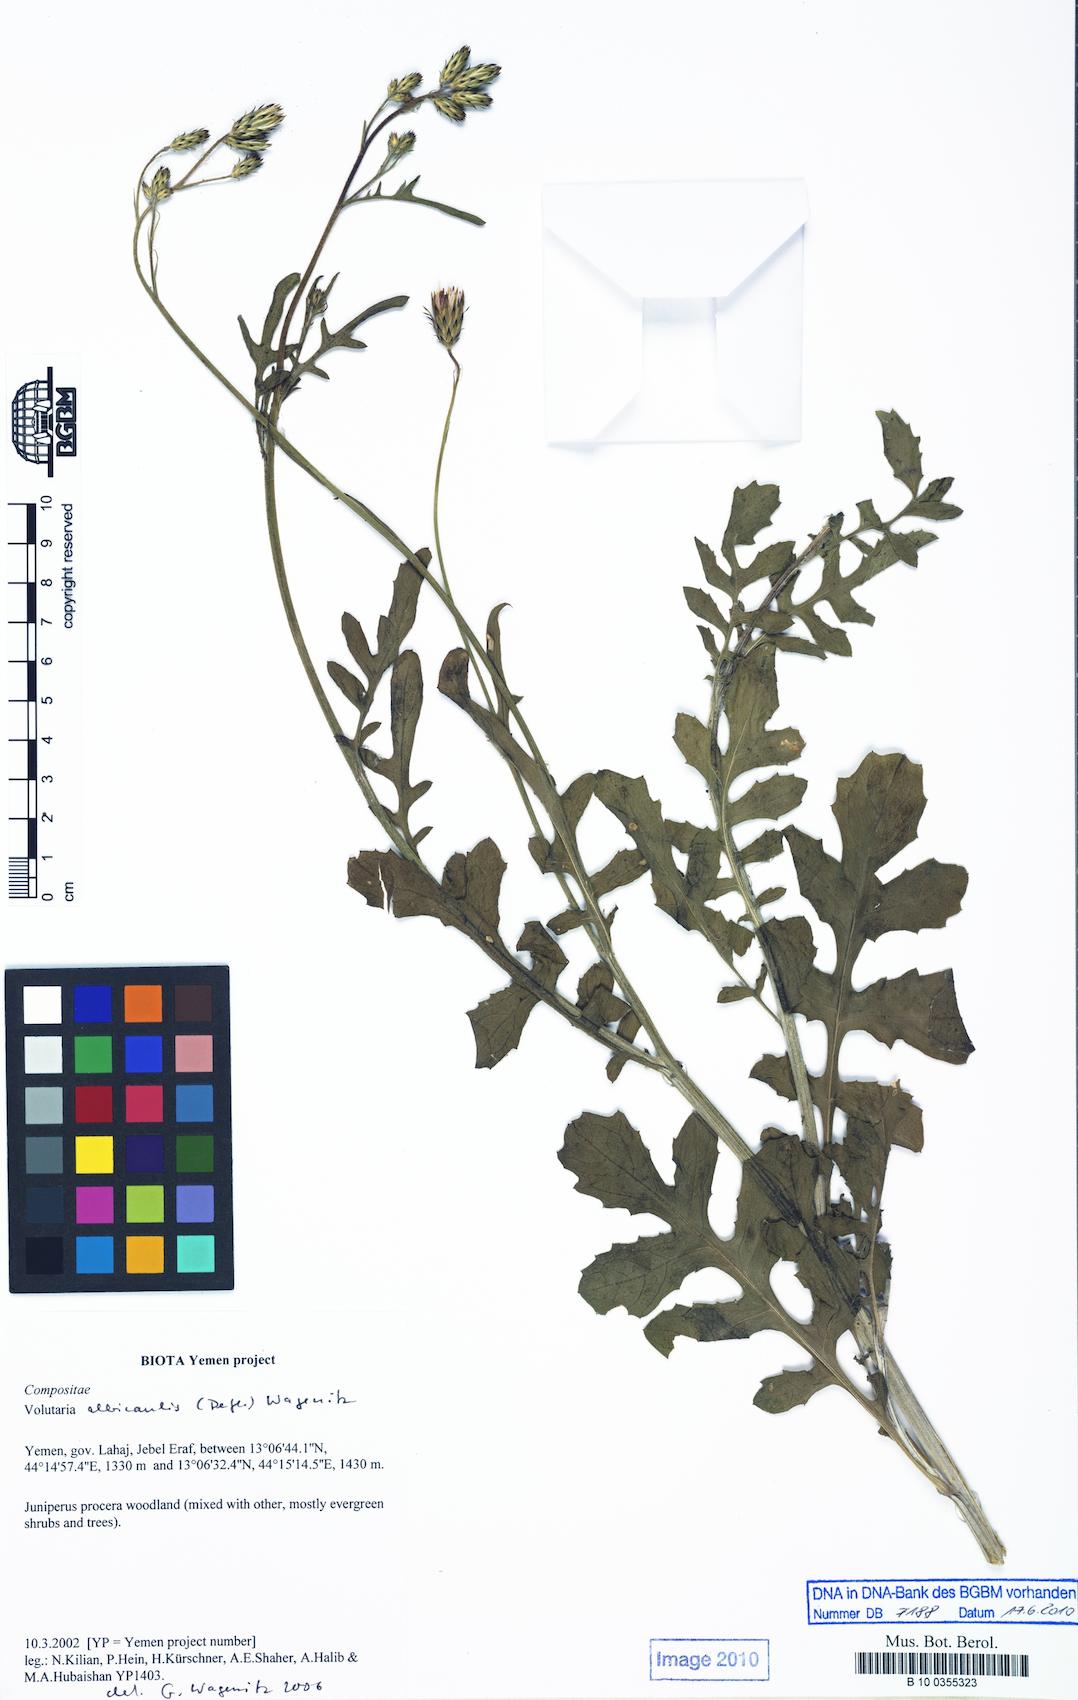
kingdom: Plantae
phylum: Tracheophyta
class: Magnoliopsida
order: Asterales
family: Asteraceae
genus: Volutaria
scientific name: Volutaria albicaulis
